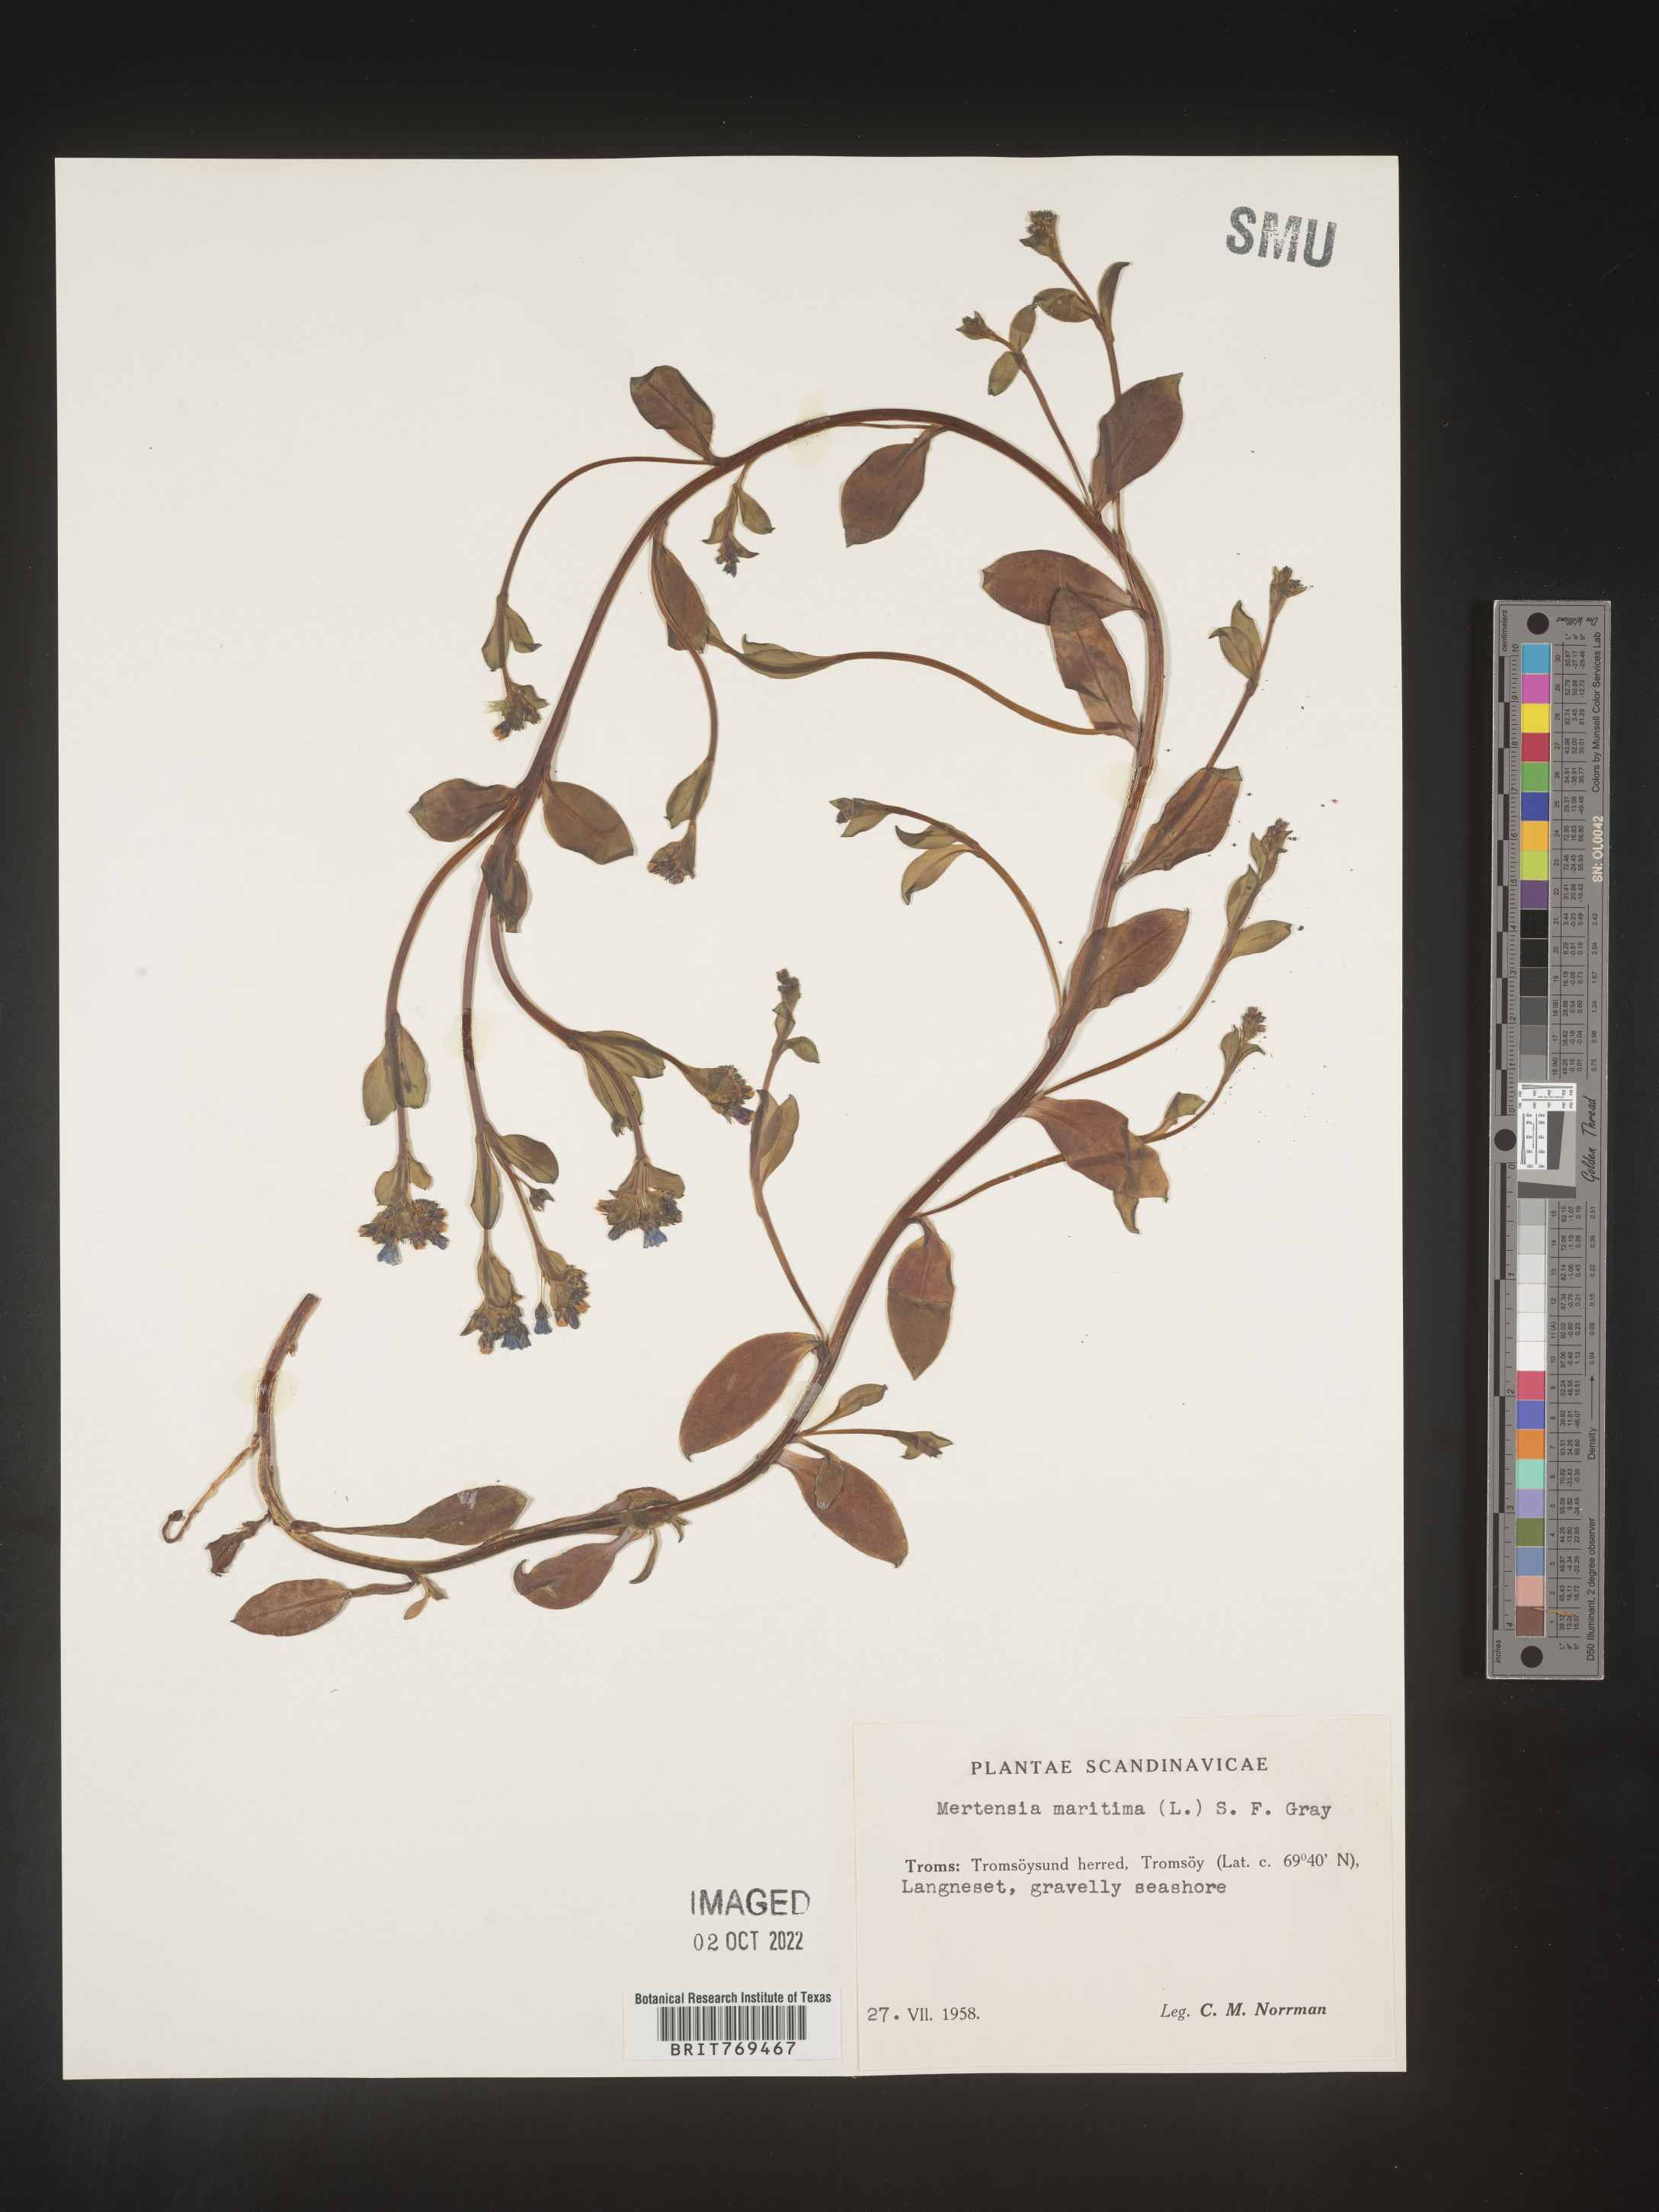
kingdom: Plantae
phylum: Tracheophyta
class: Magnoliopsida
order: Boraginales
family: Boraginaceae
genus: Mertensia
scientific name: Mertensia
